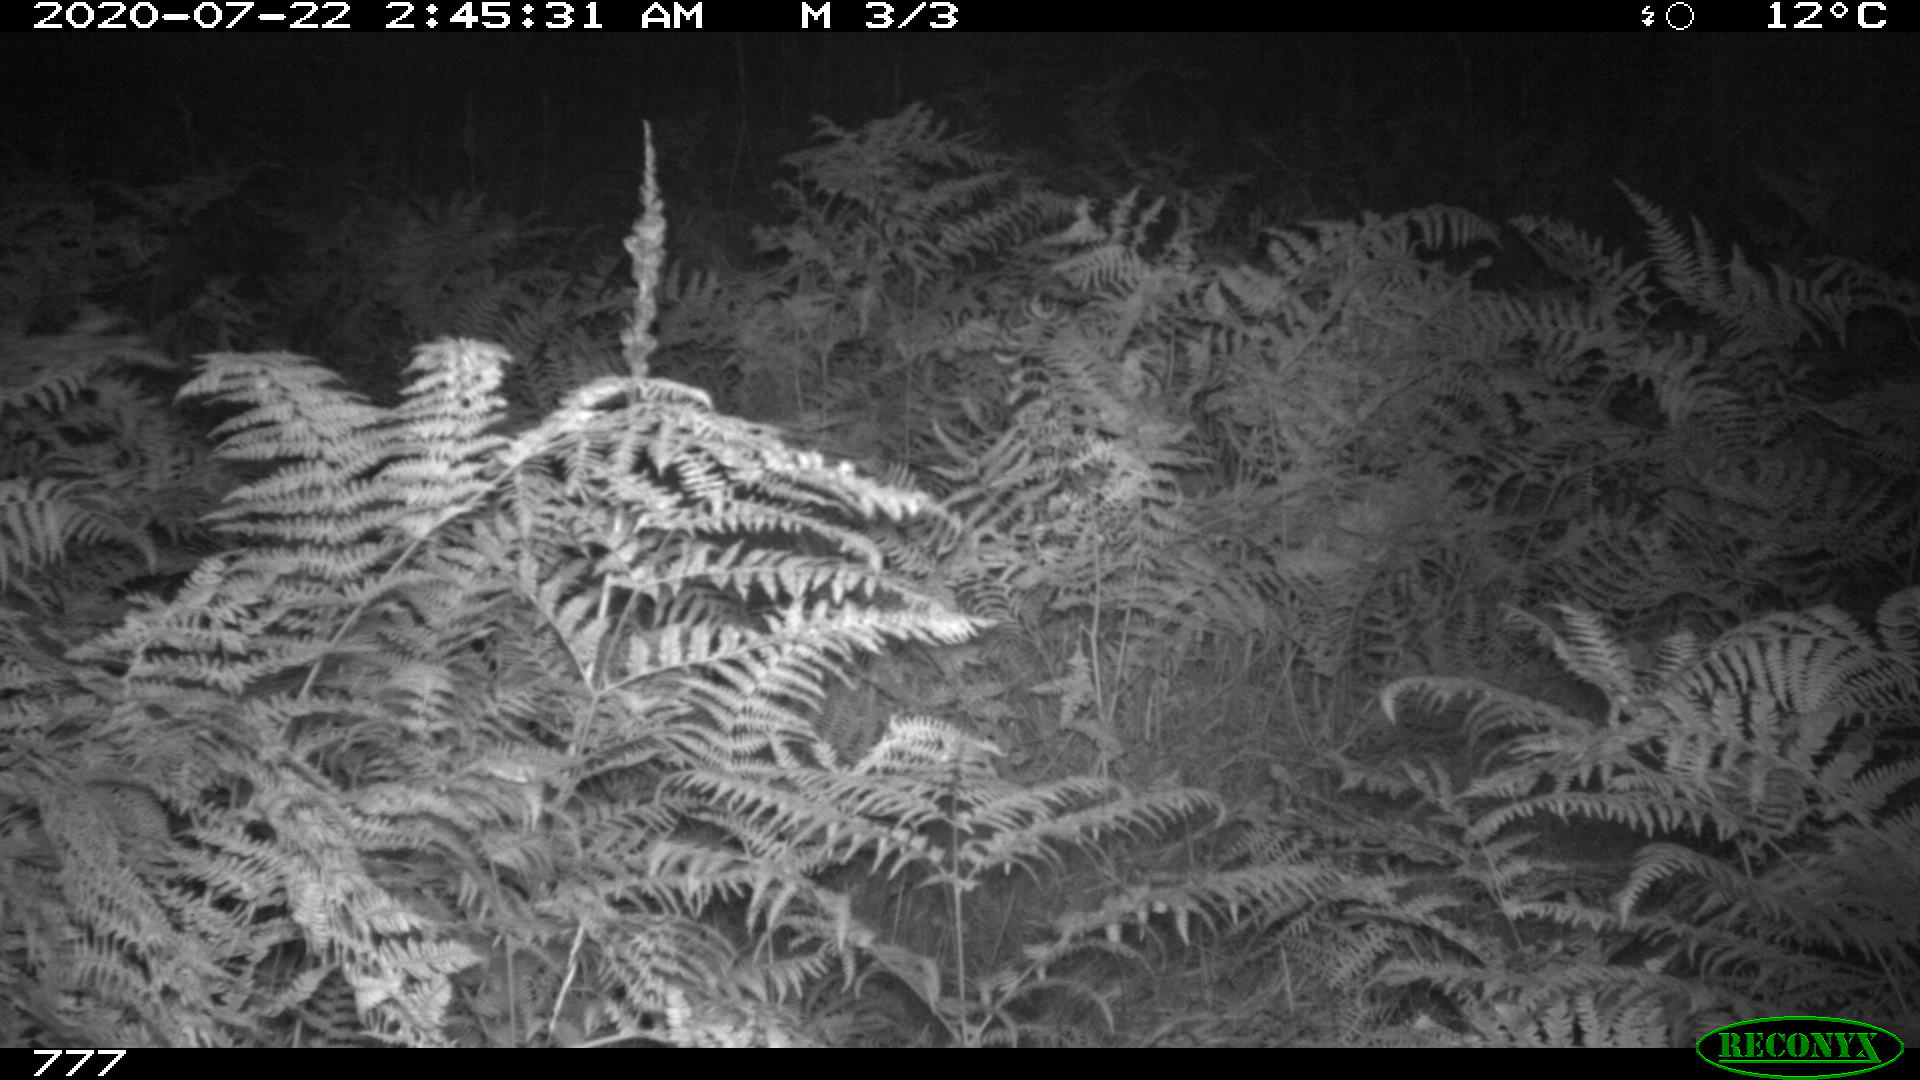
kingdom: Animalia
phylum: Chordata
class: Mammalia
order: Artiodactyla
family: Bovidae
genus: Bos
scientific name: Bos taurus
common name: Domesticated cattle
